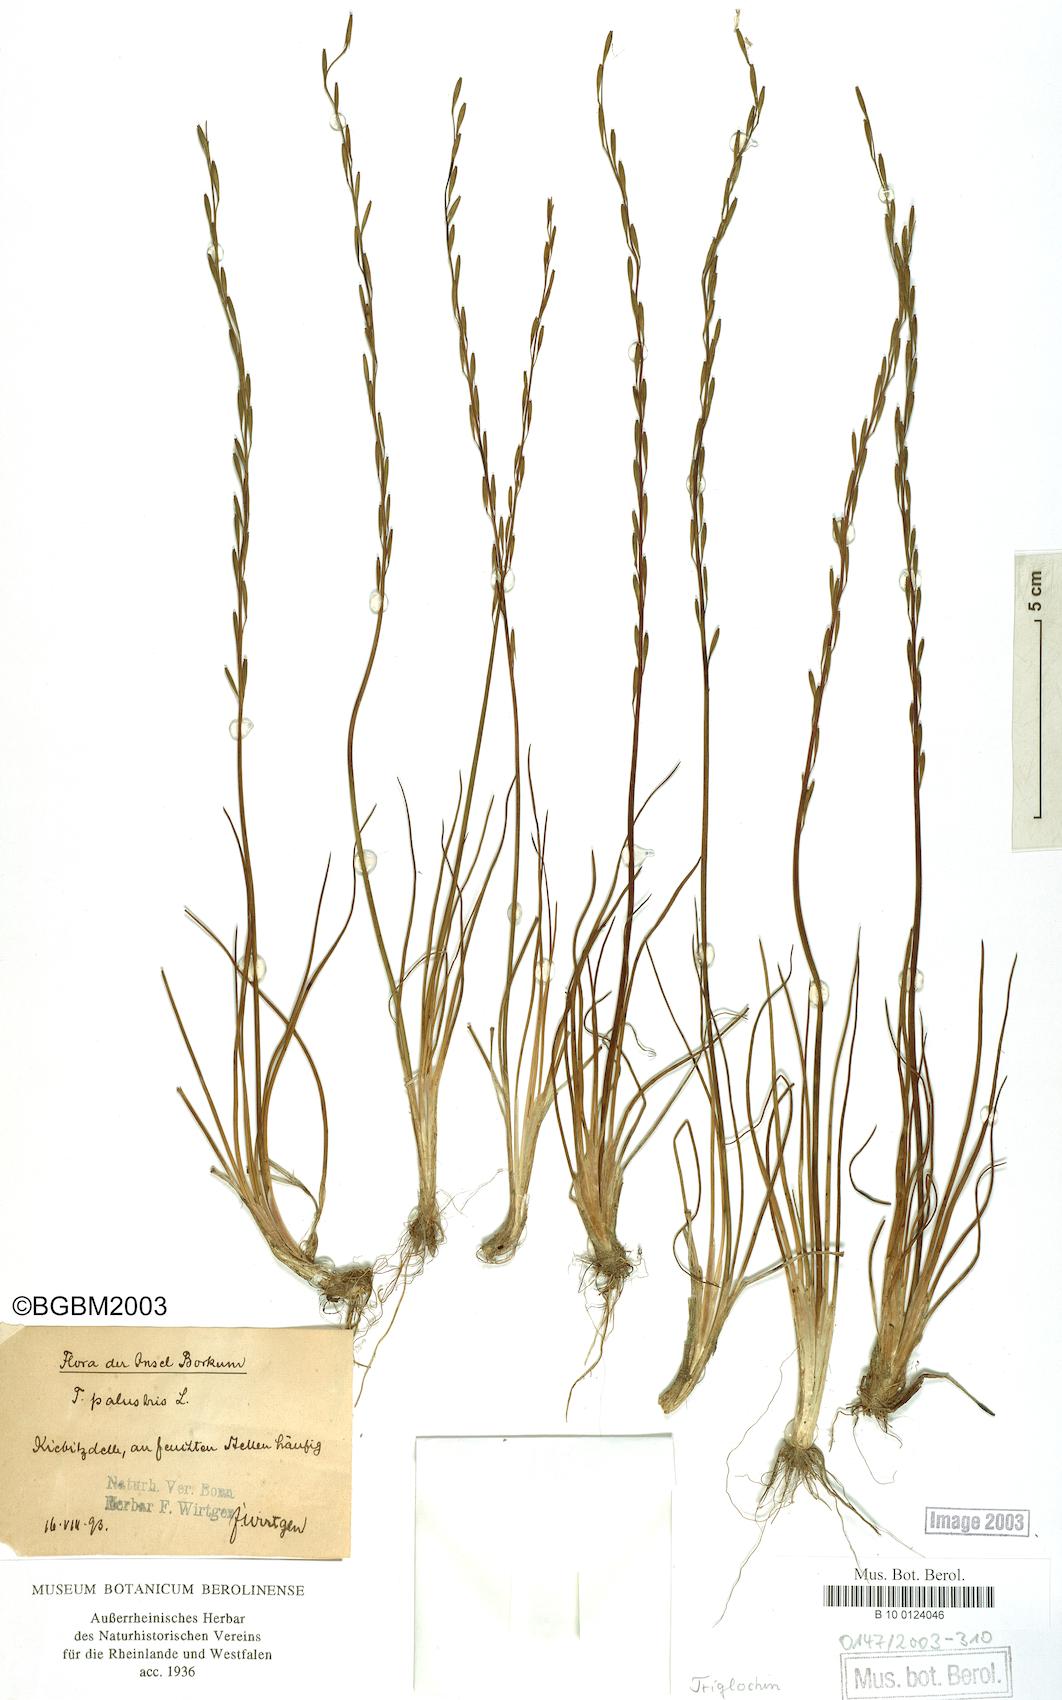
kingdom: Plantae
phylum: Tracheophyta
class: Liliopsida
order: Alismatales
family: Juncaginaceae
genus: Triglochin
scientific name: Triglochin palustris
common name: Marsh arrowgrass
